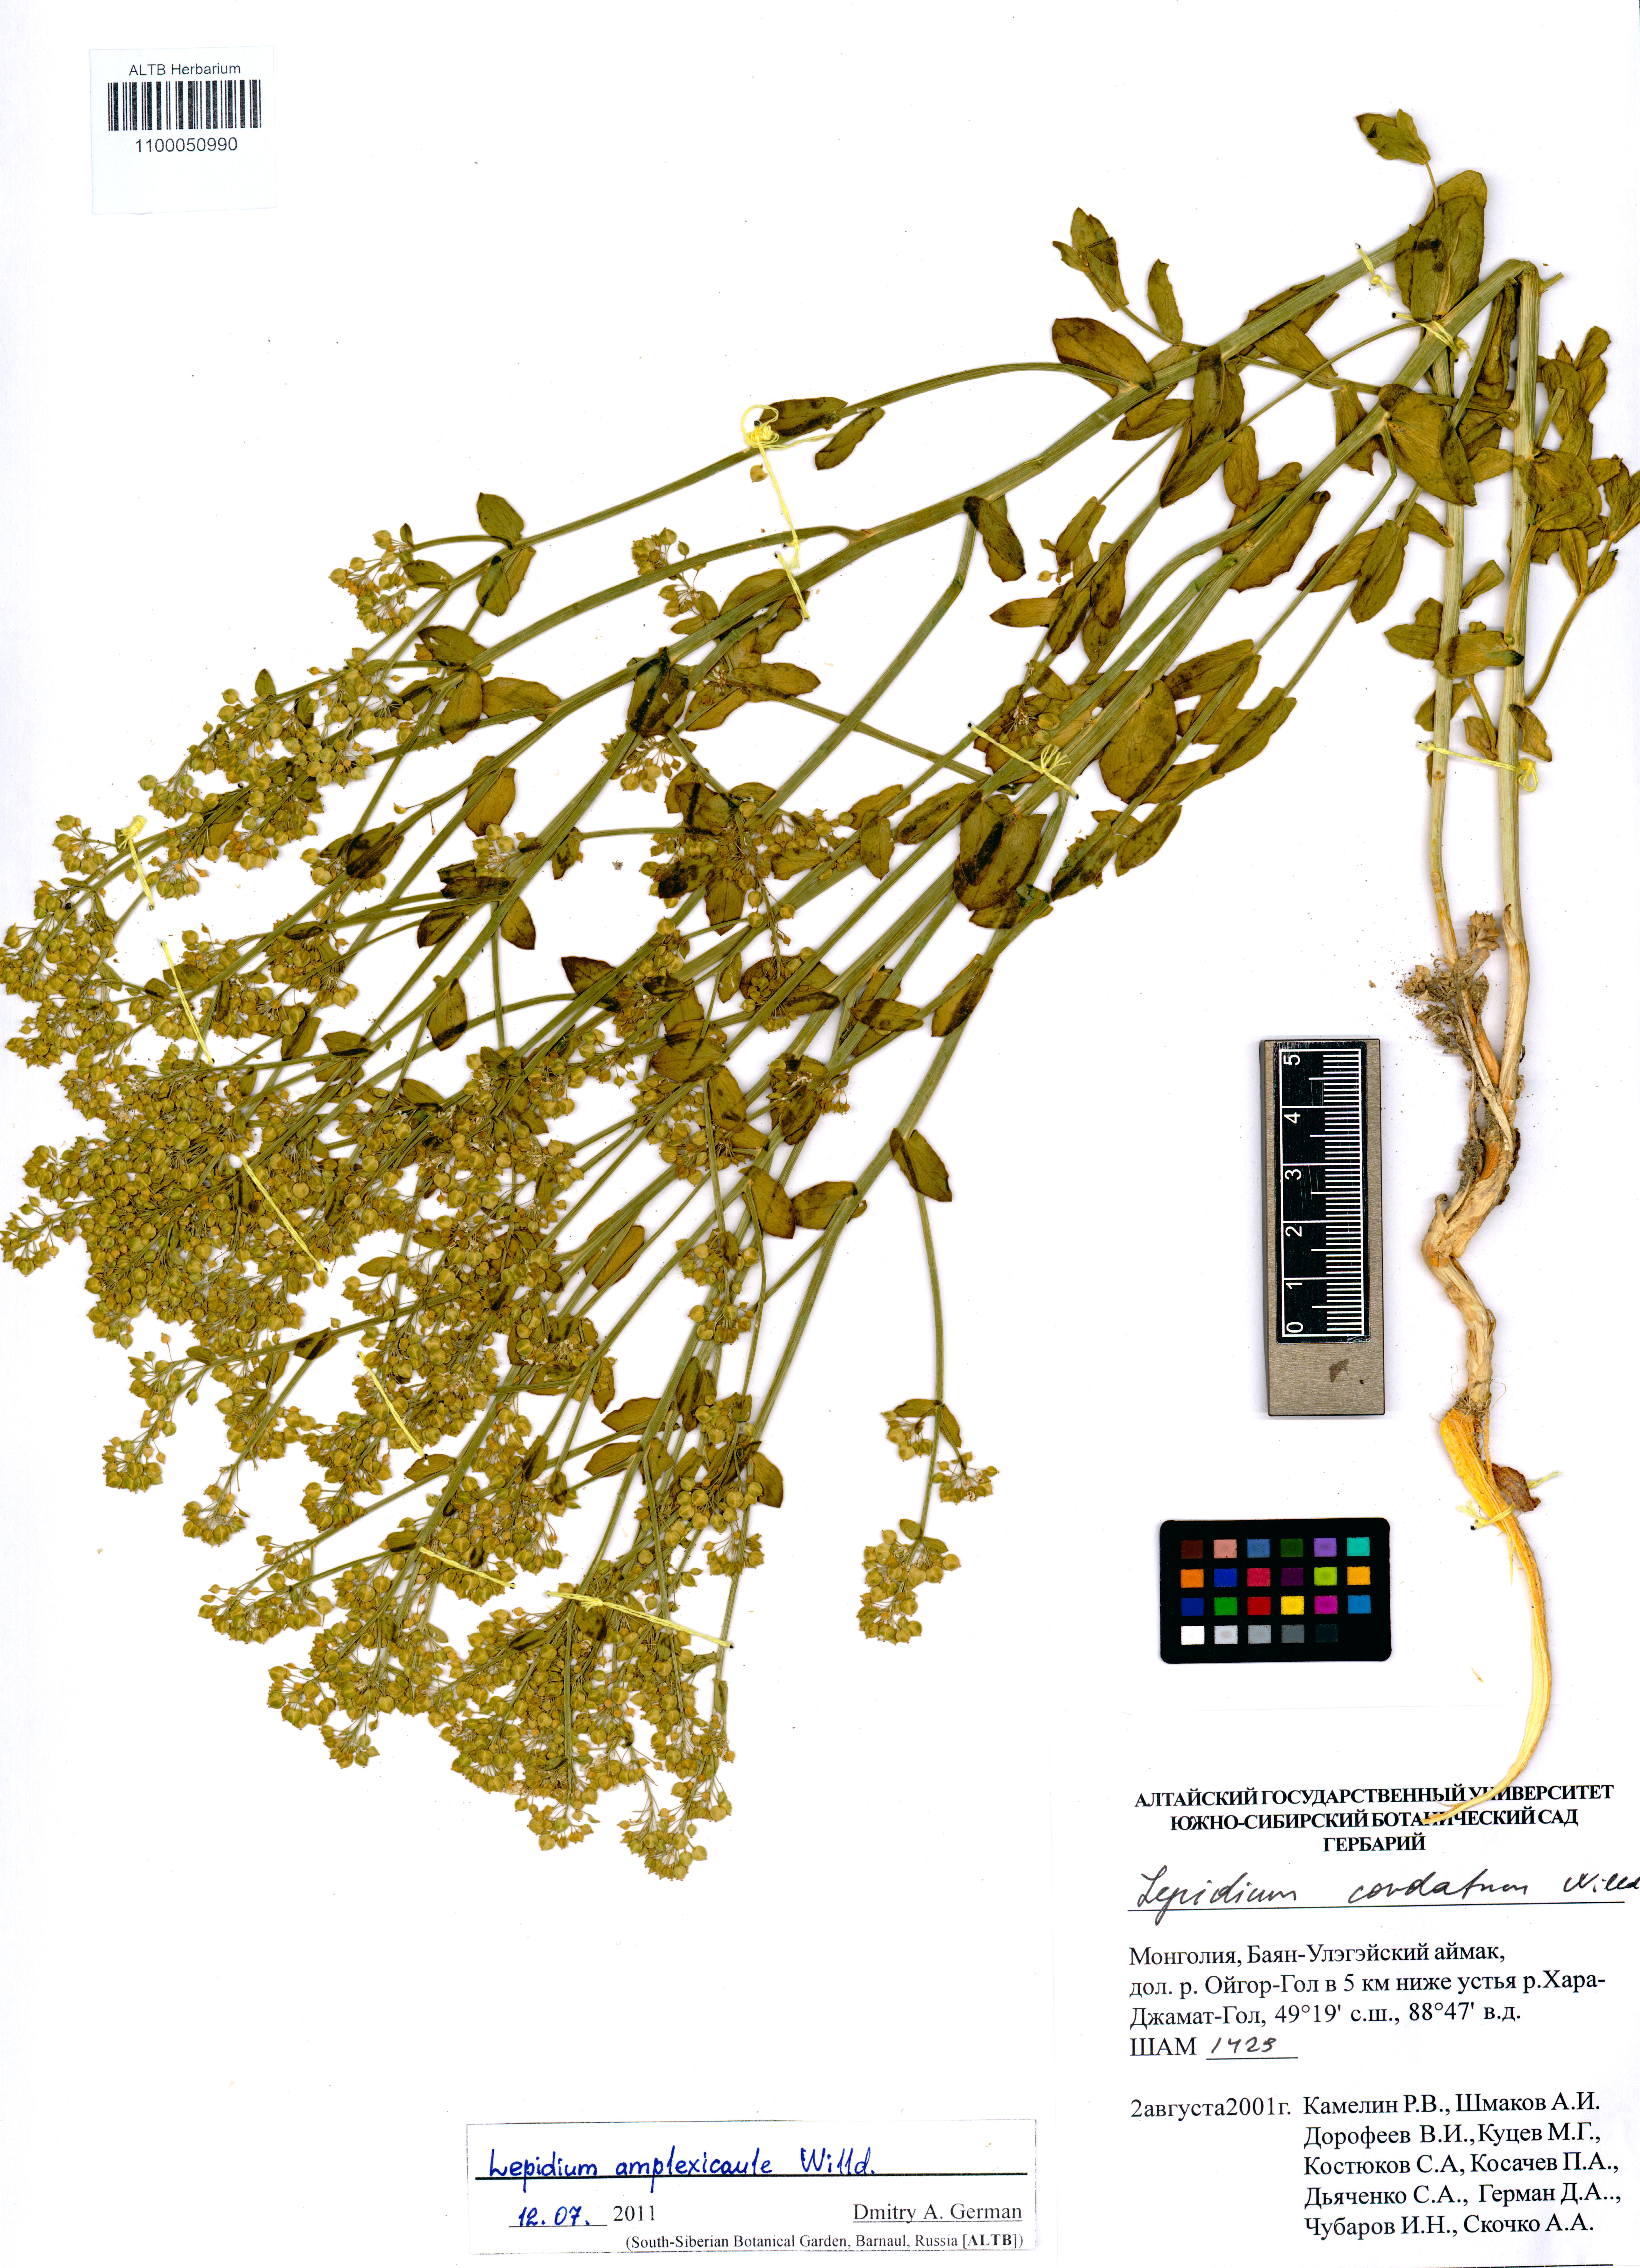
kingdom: Plantae
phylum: Tracheophyta
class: Magnoliopsida
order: Brassicales
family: Brassicaceae
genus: Lepidium
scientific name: Lepidium amplexicaule
